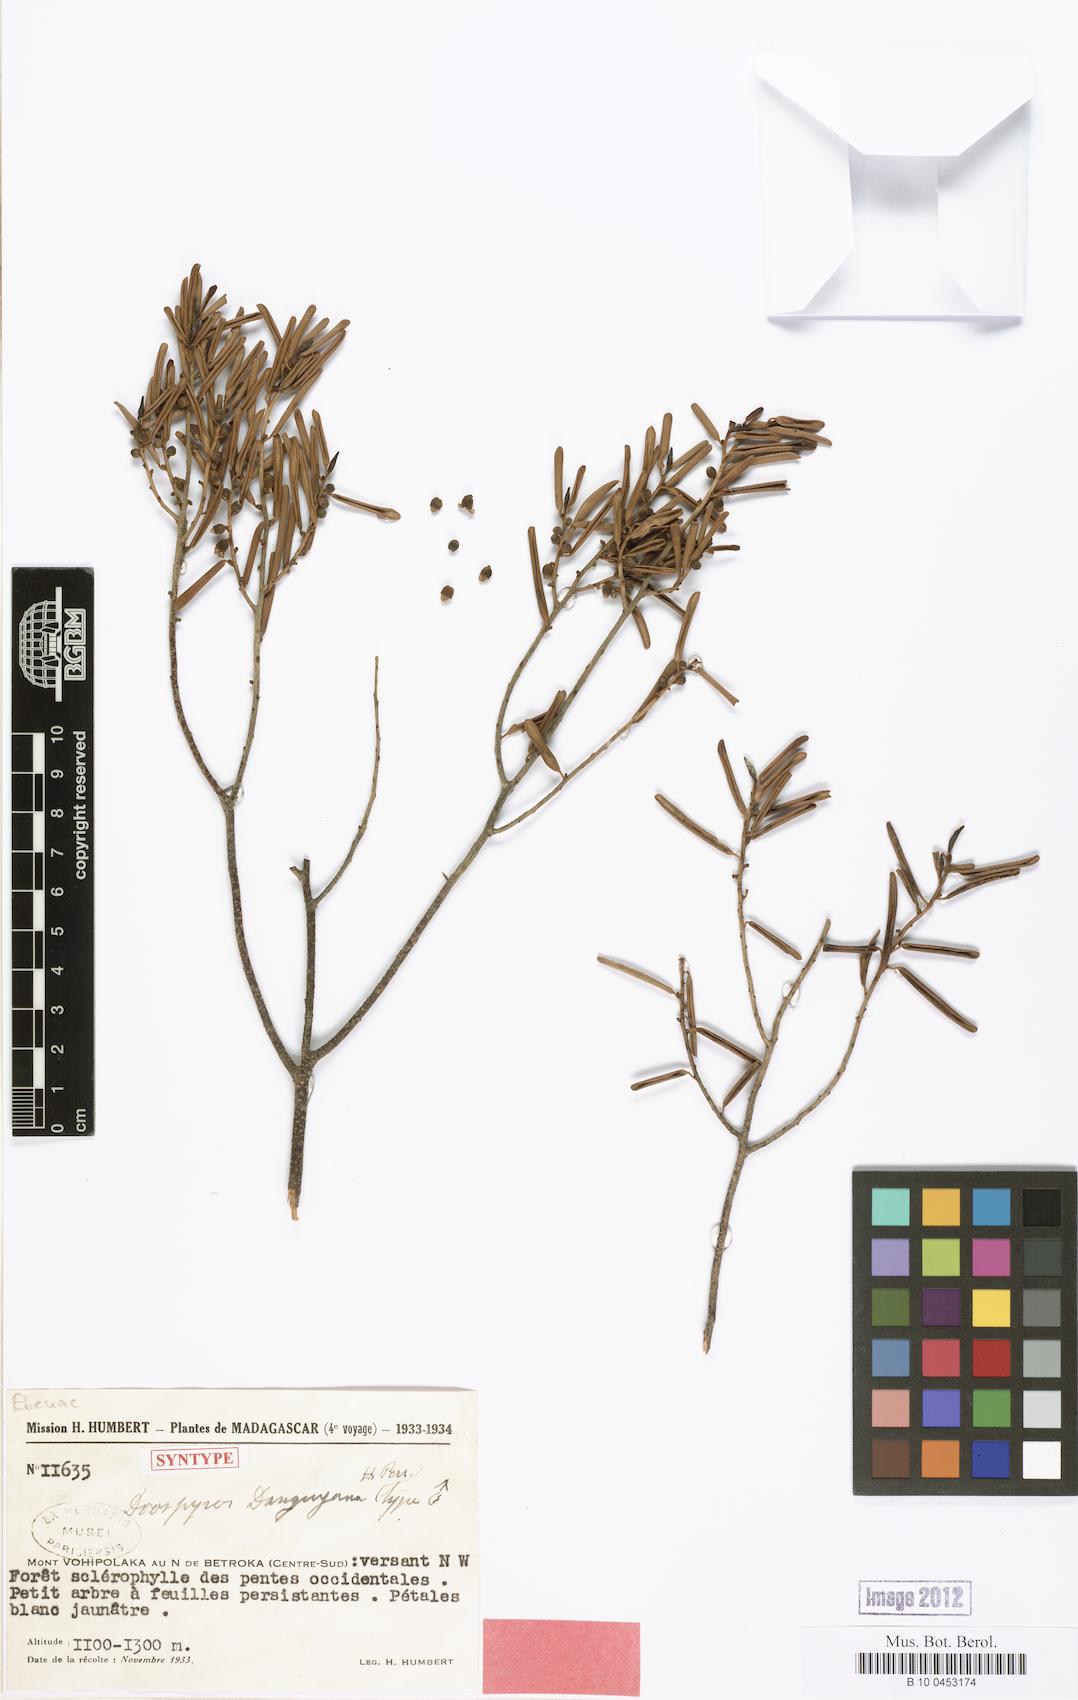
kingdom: Plantae
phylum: Tracheophyta
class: Magnoliopsida
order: Ericales
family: Ebenaceae
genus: Diospyros
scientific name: Diospyros danguyana
